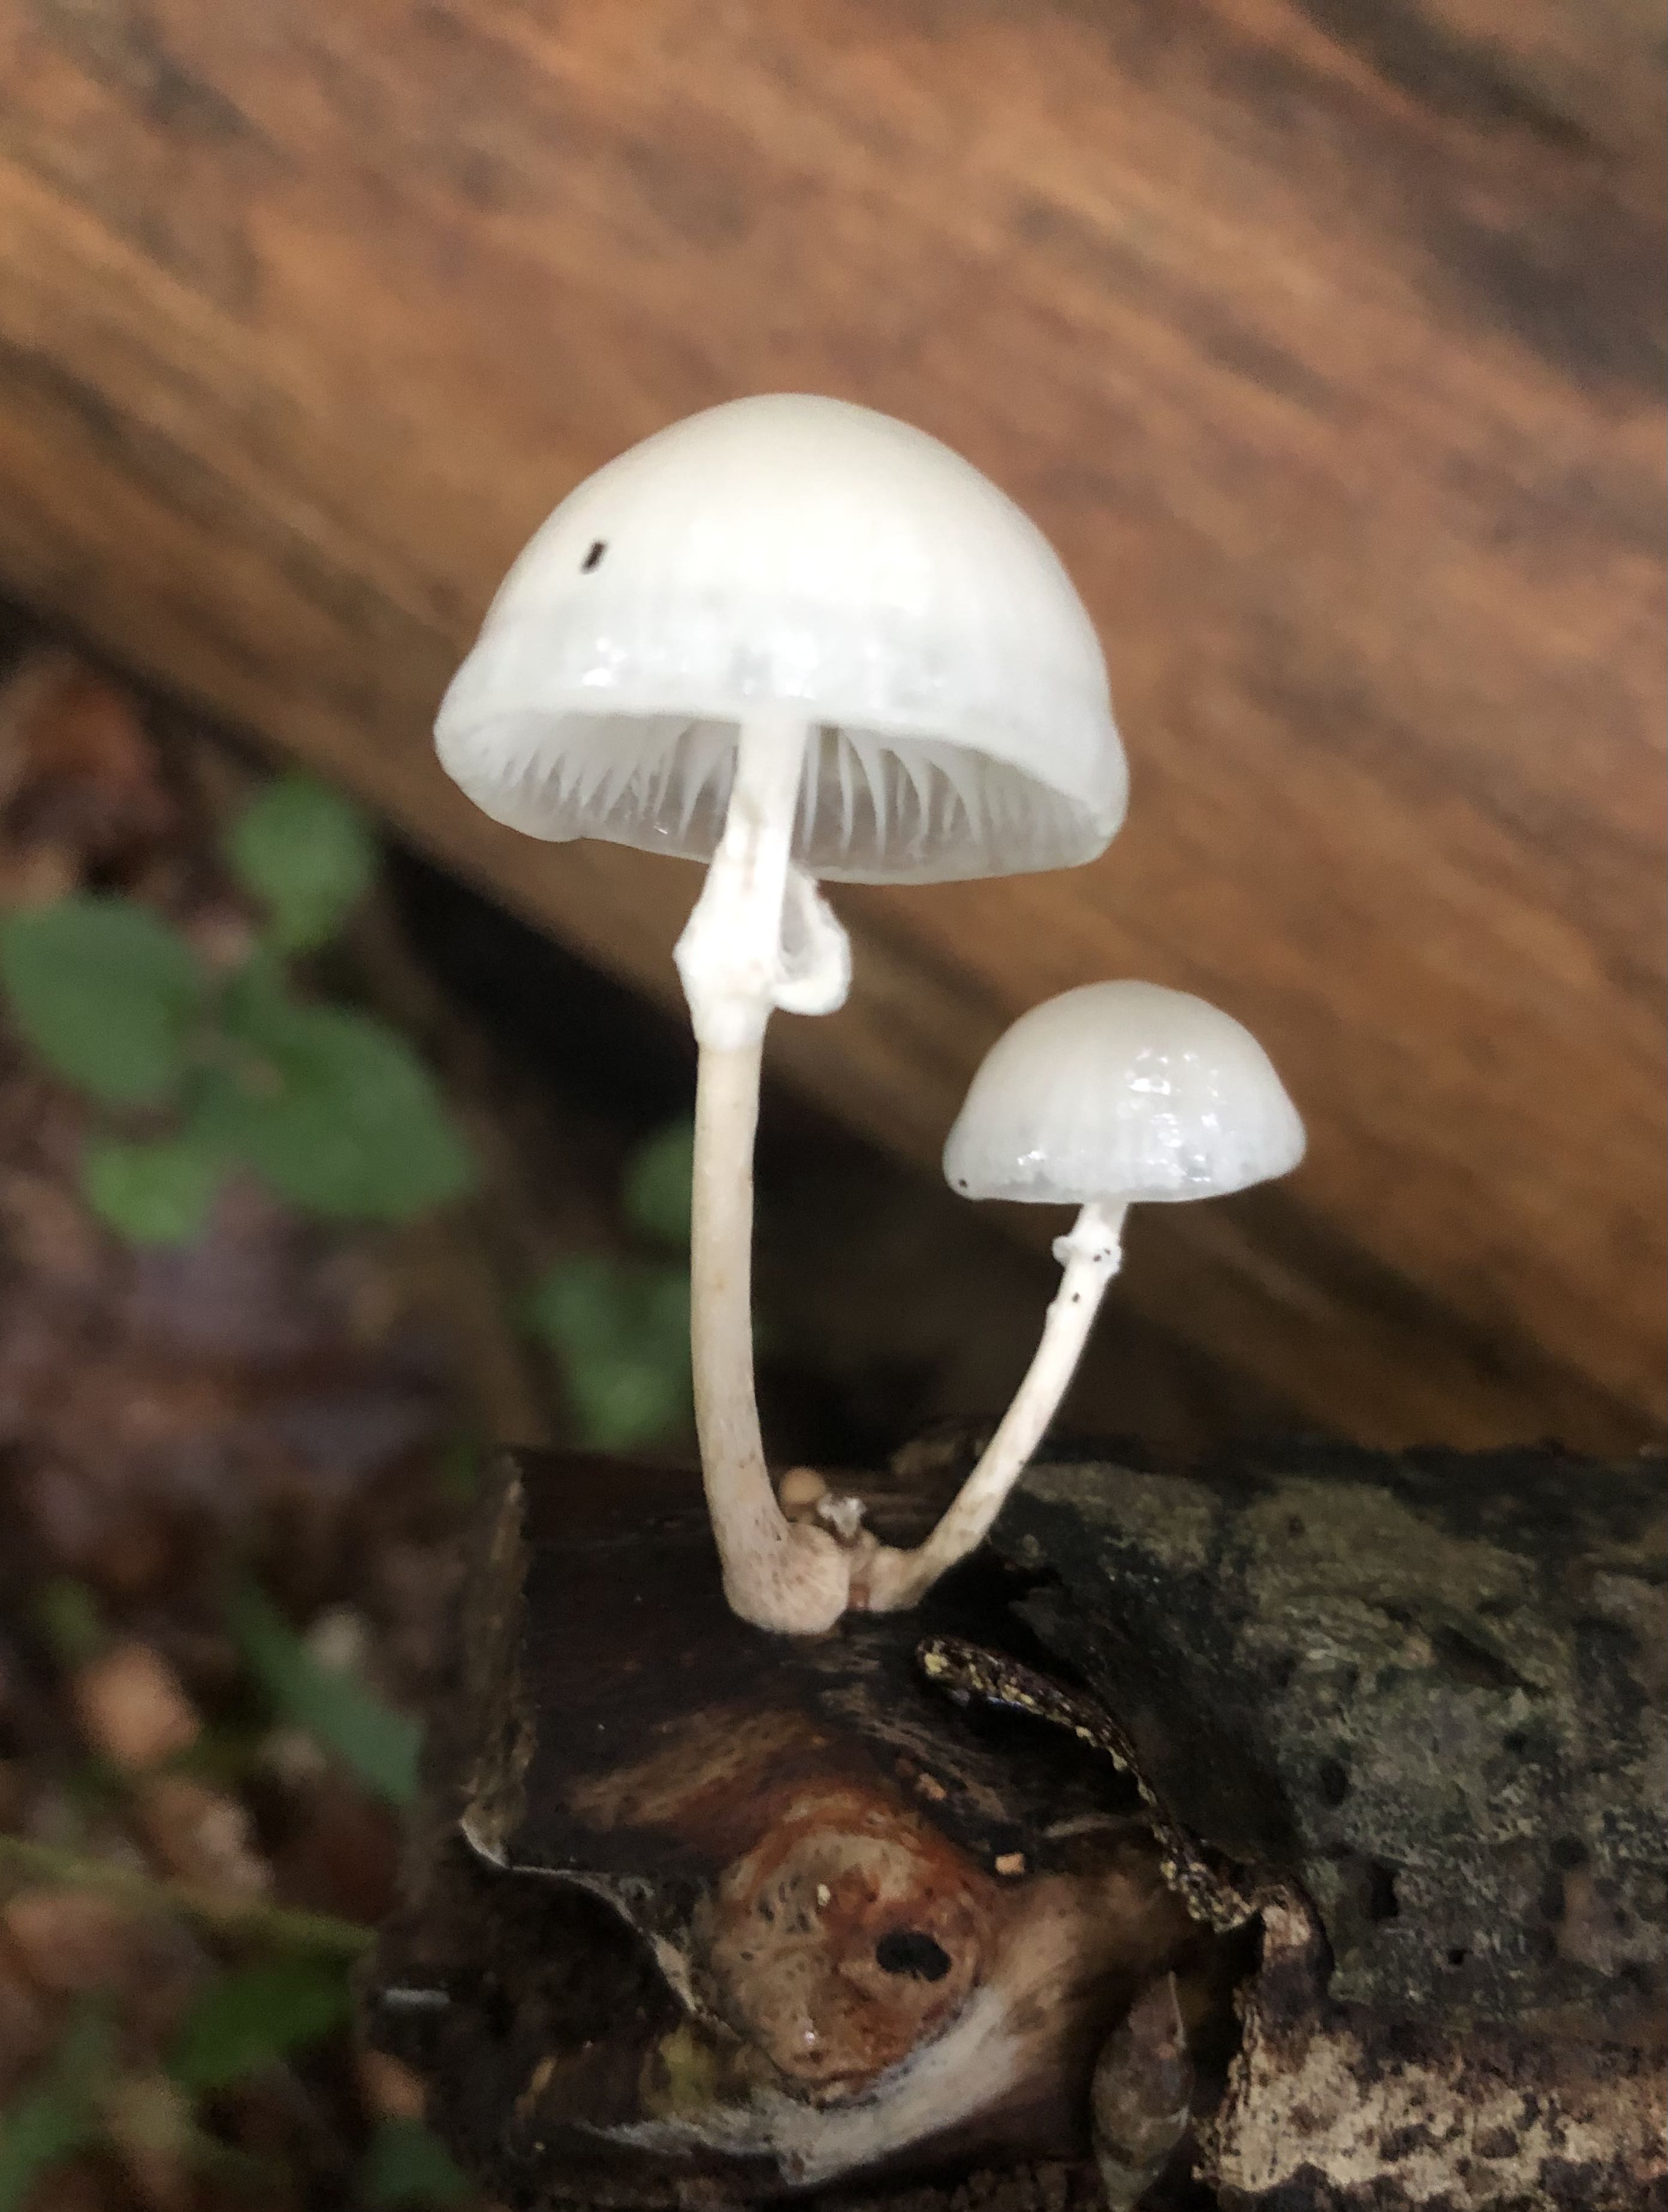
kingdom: Fungi
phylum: Basidiomycota
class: Agaricomycetes
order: Agaricales
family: Physalacriaceae
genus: Mucidula
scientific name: Mucidula mucida
